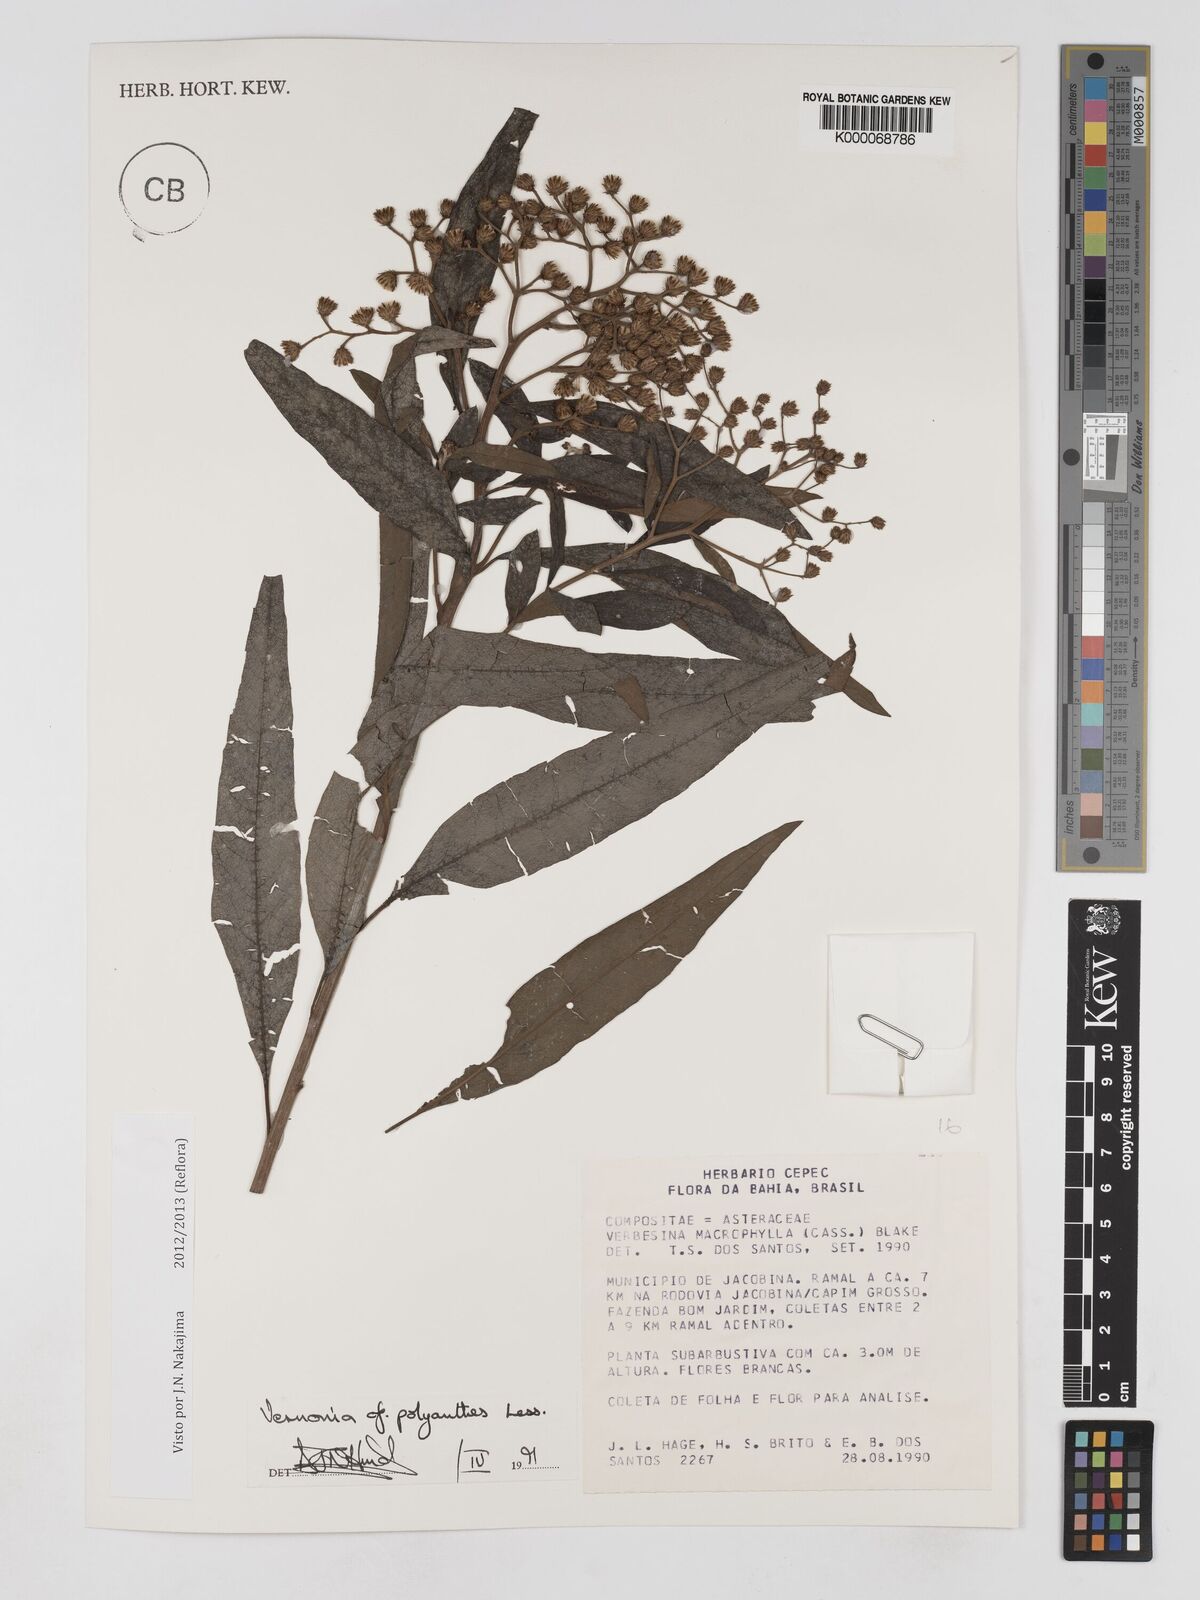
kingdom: Plantae
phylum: Tracheophyta
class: Magnoliopsida
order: Asterales
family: Asteraceae
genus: Vernonanthura
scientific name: Vernonanthura polyanthes
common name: Tree aster
